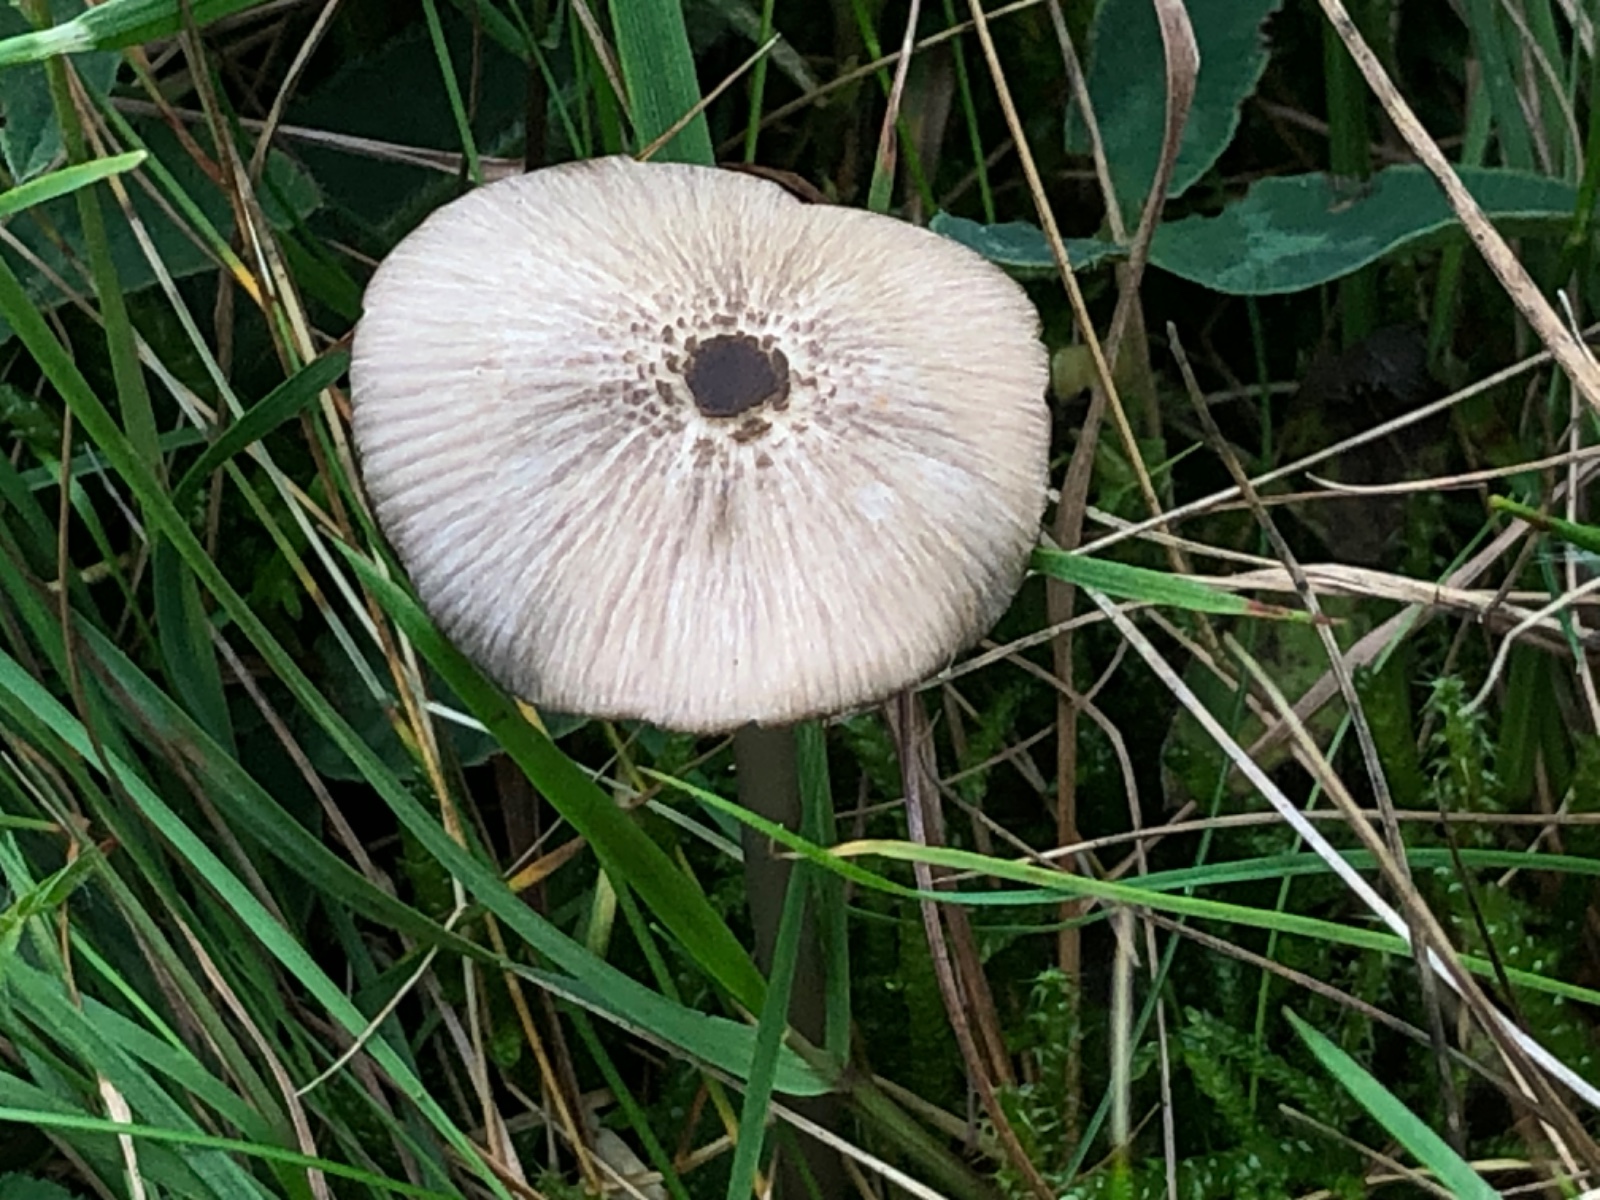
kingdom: Fungi
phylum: Basidiomycota
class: Agaricomycetes
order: Agaricales
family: Entolomataceae
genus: Entoloma
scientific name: Entoloma exile
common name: rødplettet rødblad
